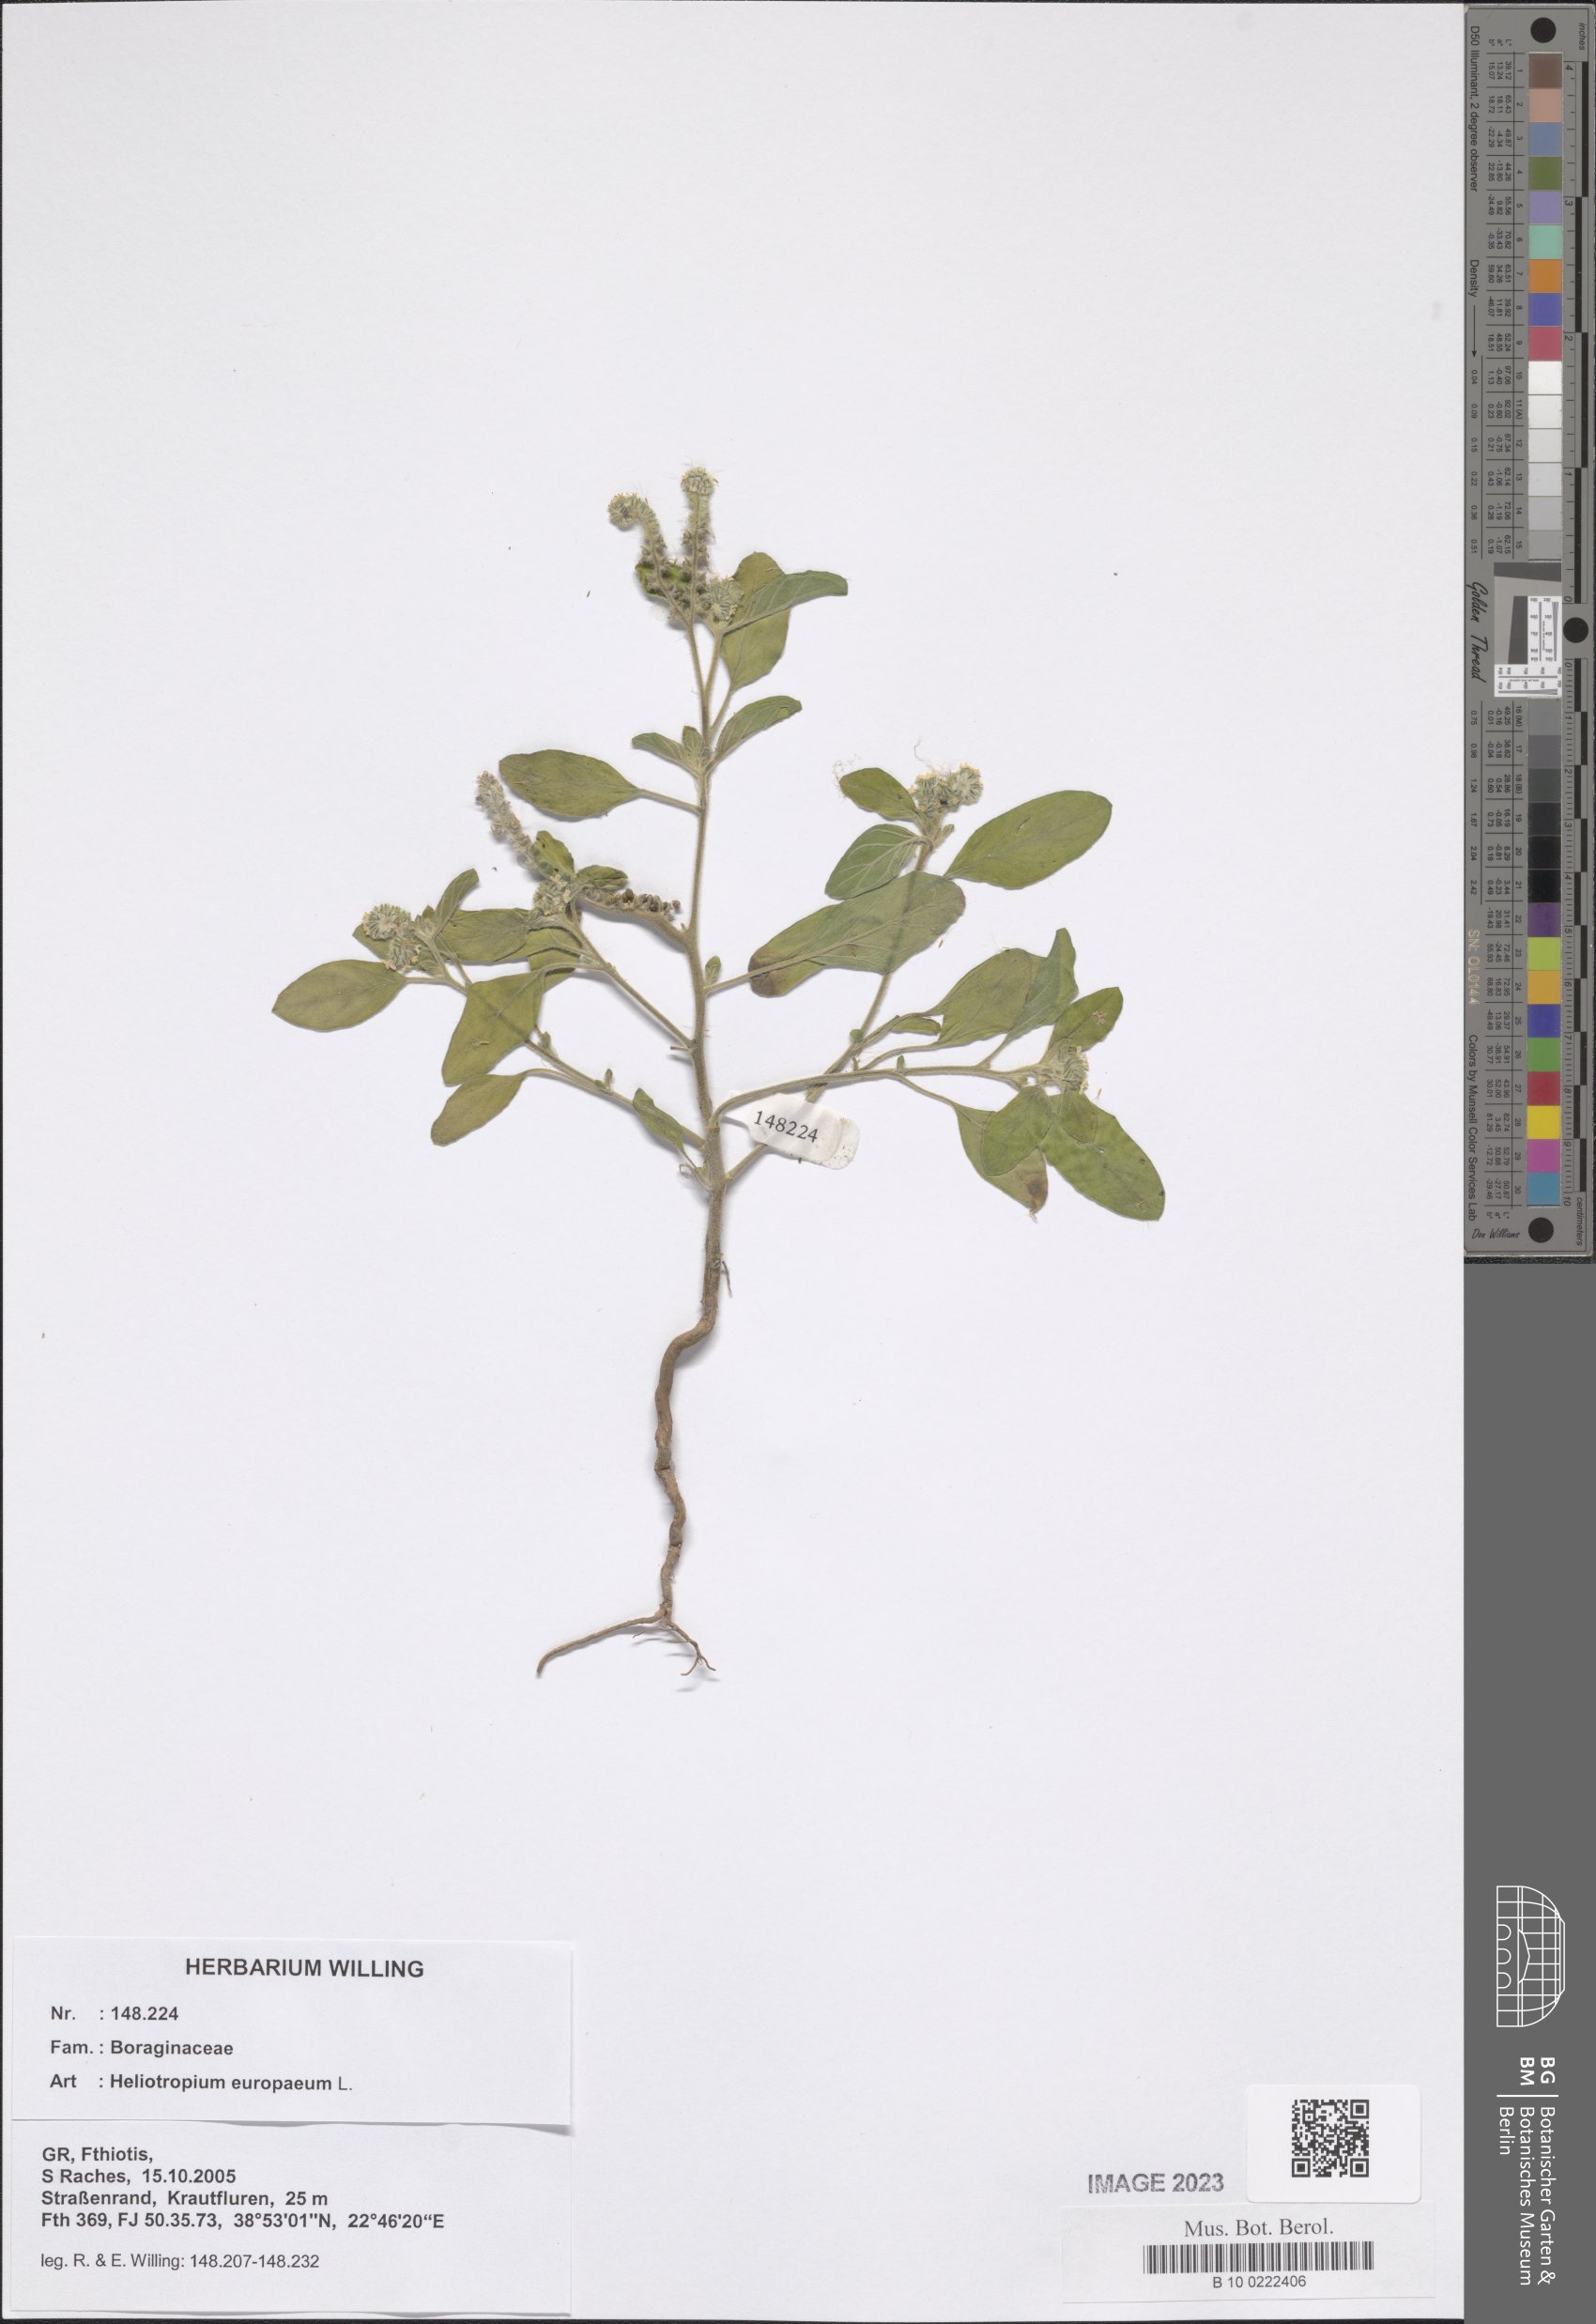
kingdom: Plantae
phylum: Tracheophyta
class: Magnoliopsida
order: Boraginales
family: Heliotropiaceae
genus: Heliotropium
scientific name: Heliotropium europaeum
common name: European heliotrope
